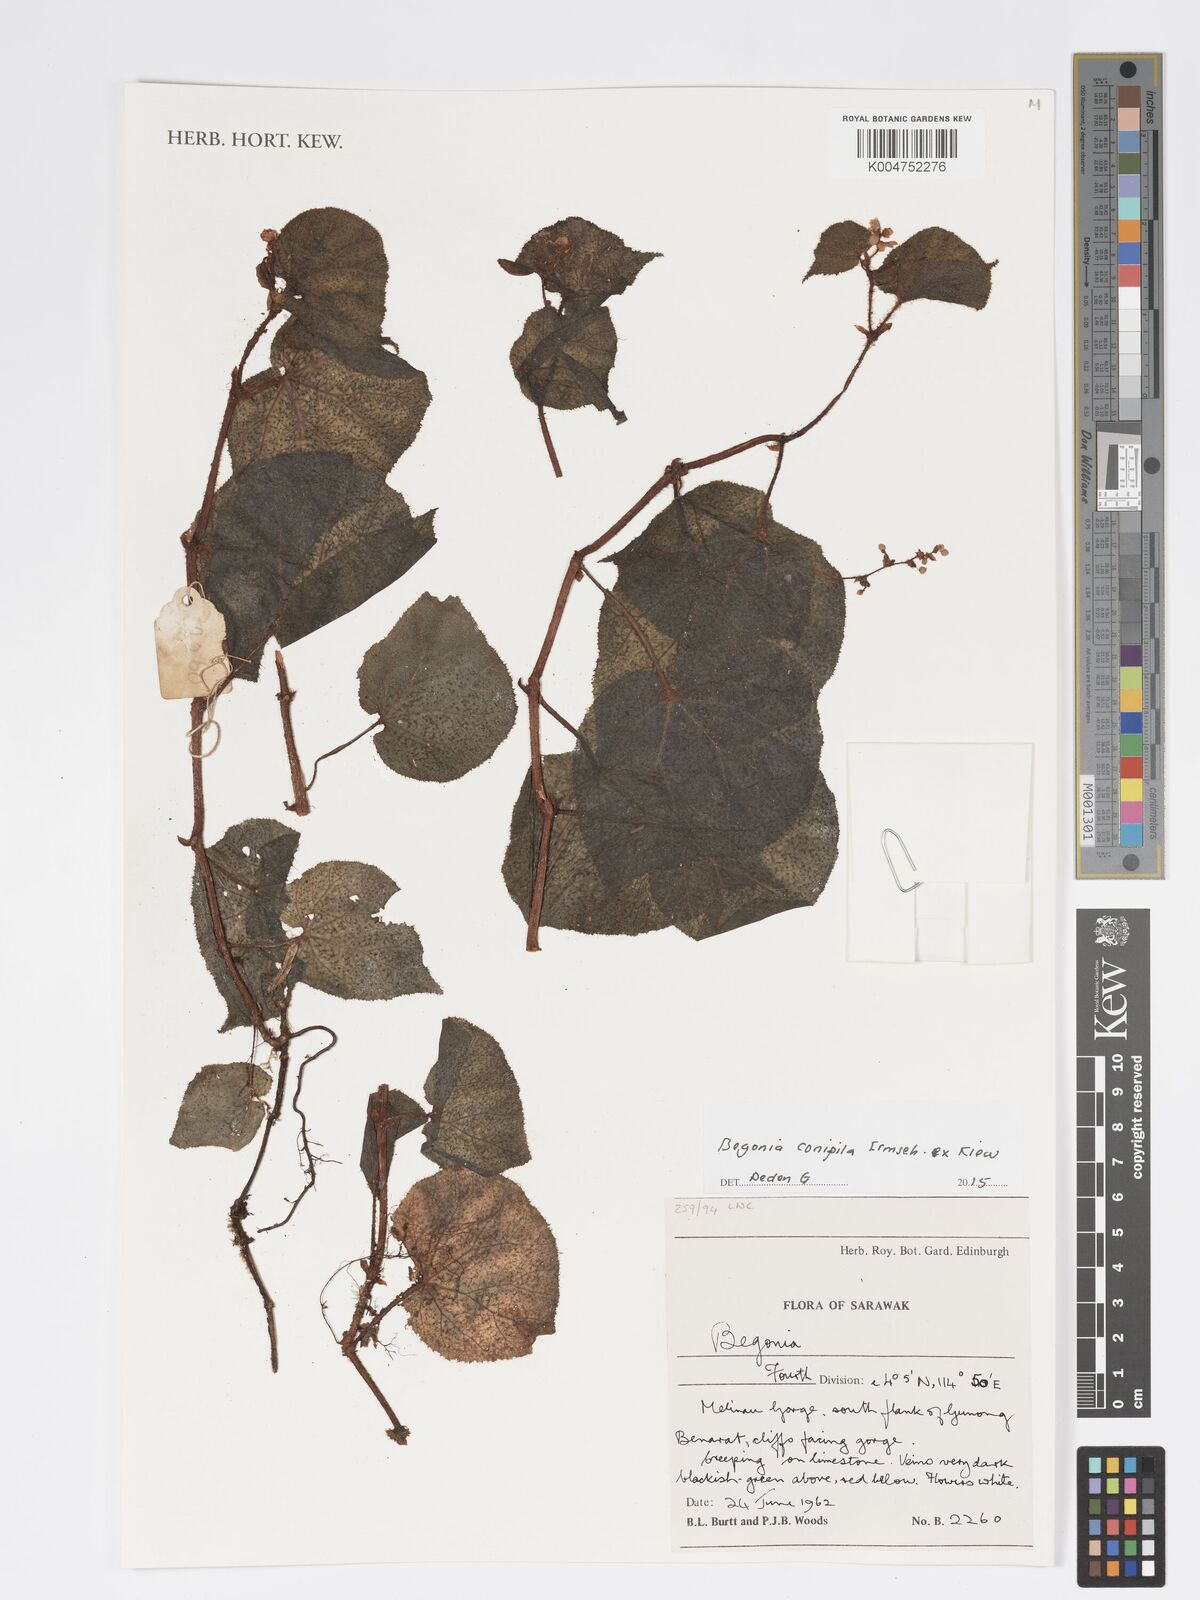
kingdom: Plantae
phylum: Tracheophyta
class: Magnoliopsida
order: Cucurbitales
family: Begoniaceae
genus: Begonia
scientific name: Begonia conipila
